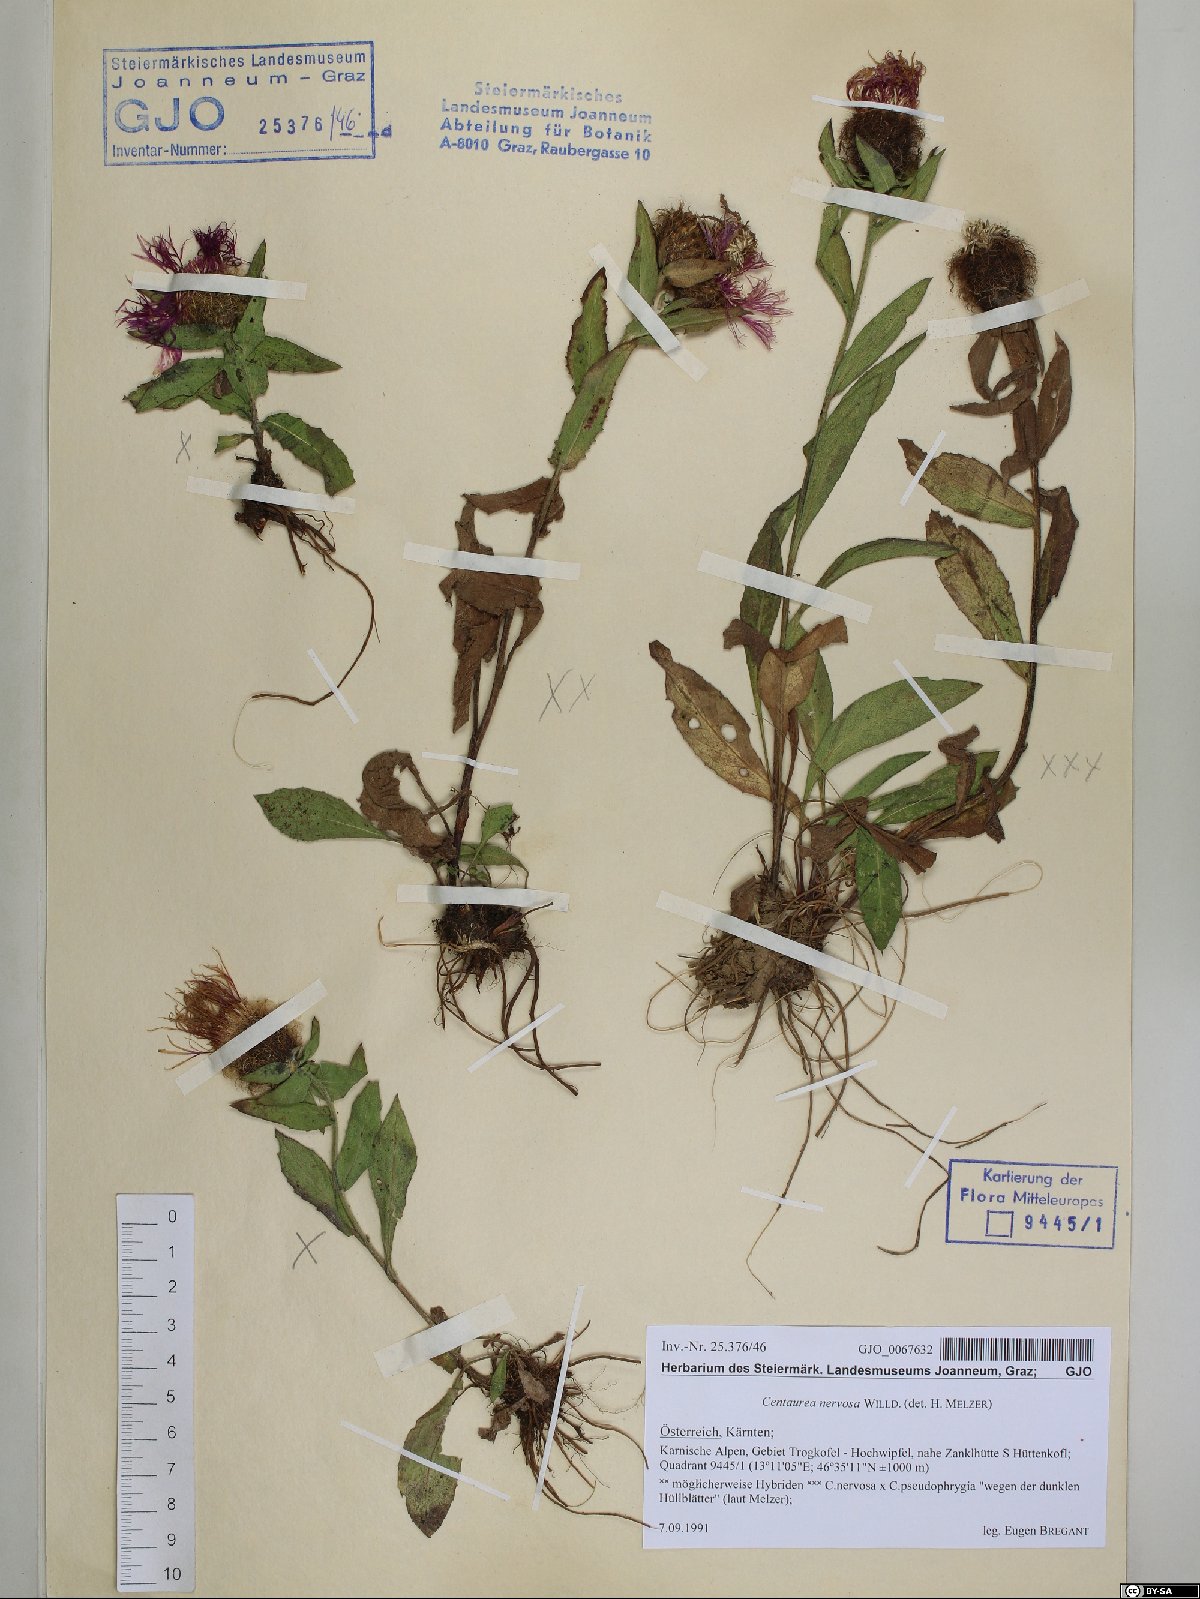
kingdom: Plantae
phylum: Tracheophyta
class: Magnoliopsida
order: Asterales
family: Asteraceae
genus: Centaurea
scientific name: Centaurea nervosa
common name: Singleflower knapweed
